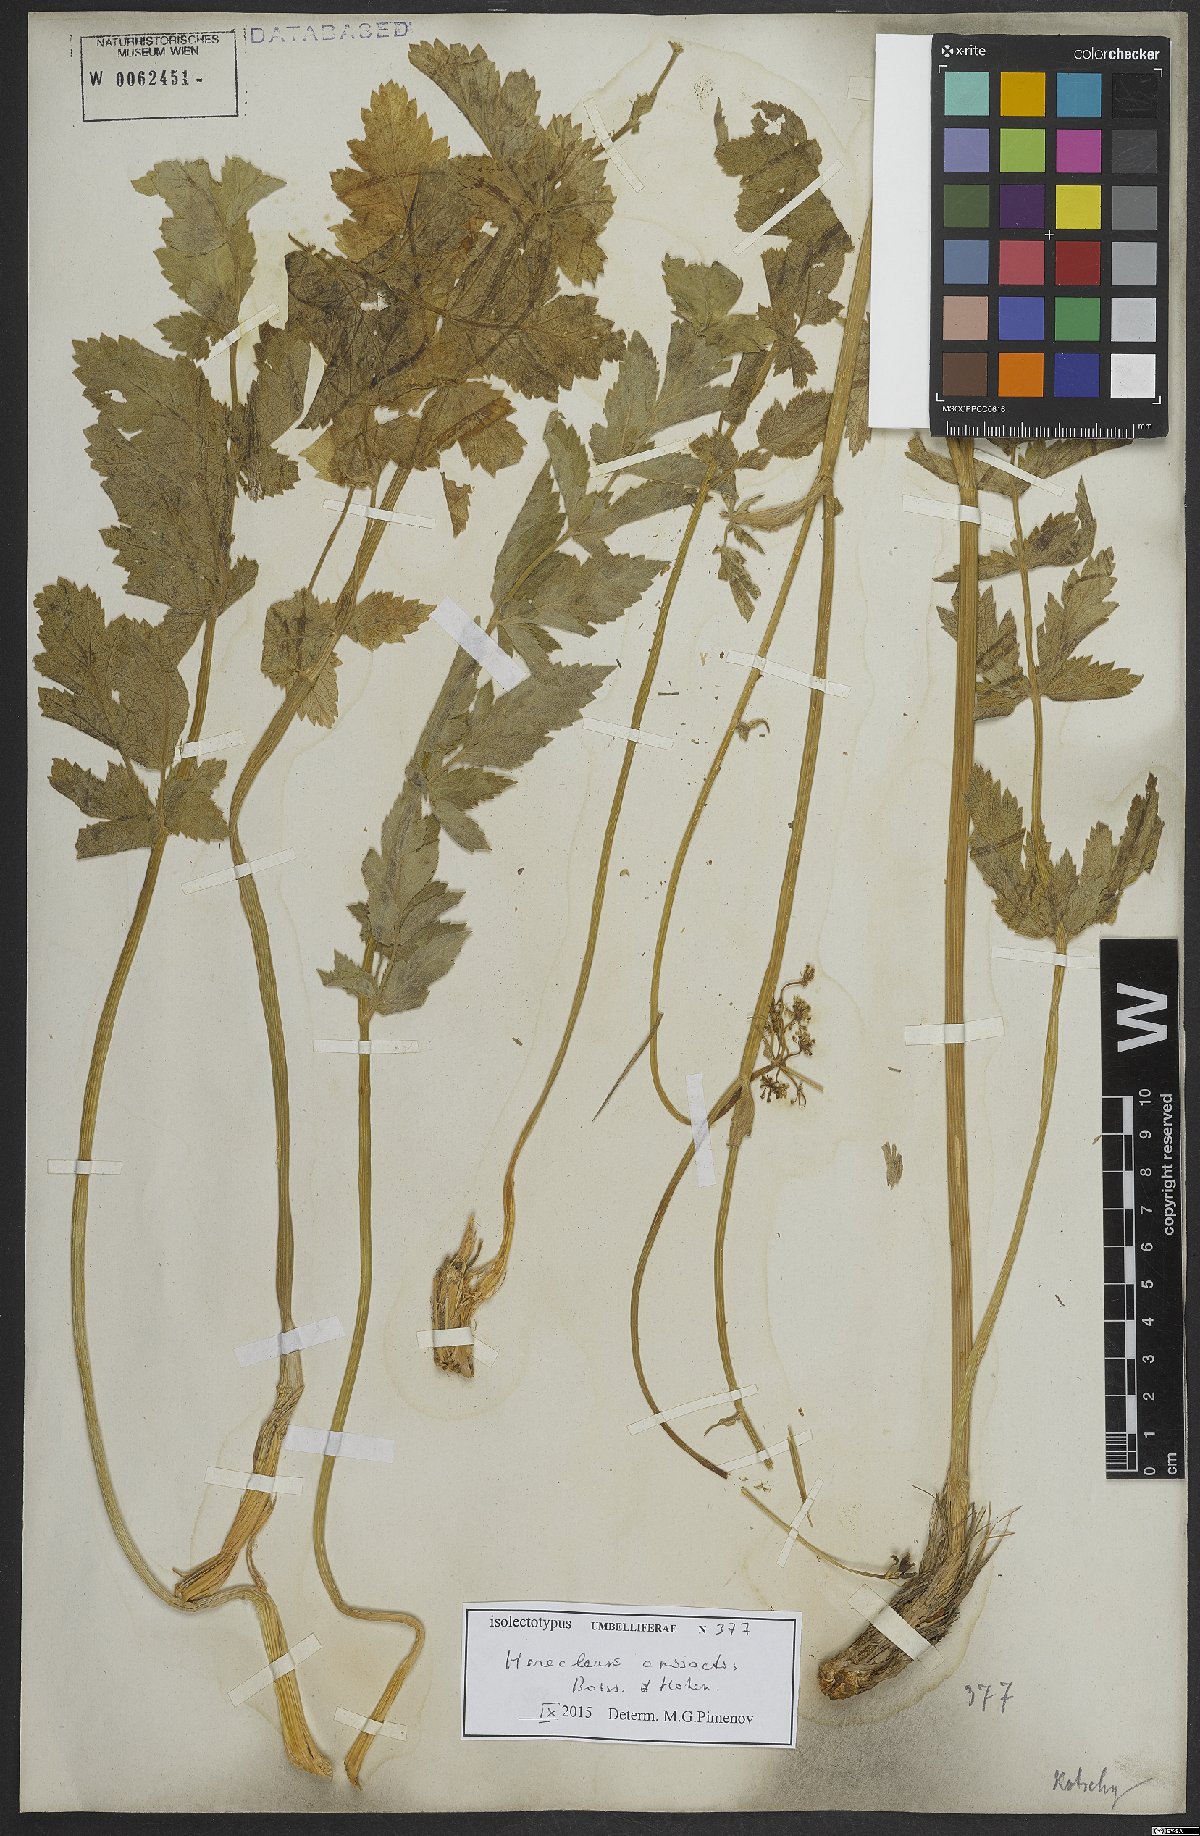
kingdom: Plantae
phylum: Tracheophyta
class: Magnoliopsida
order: Apiales
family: Apiaceae
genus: Heracleum
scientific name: Heracleum anisactis
